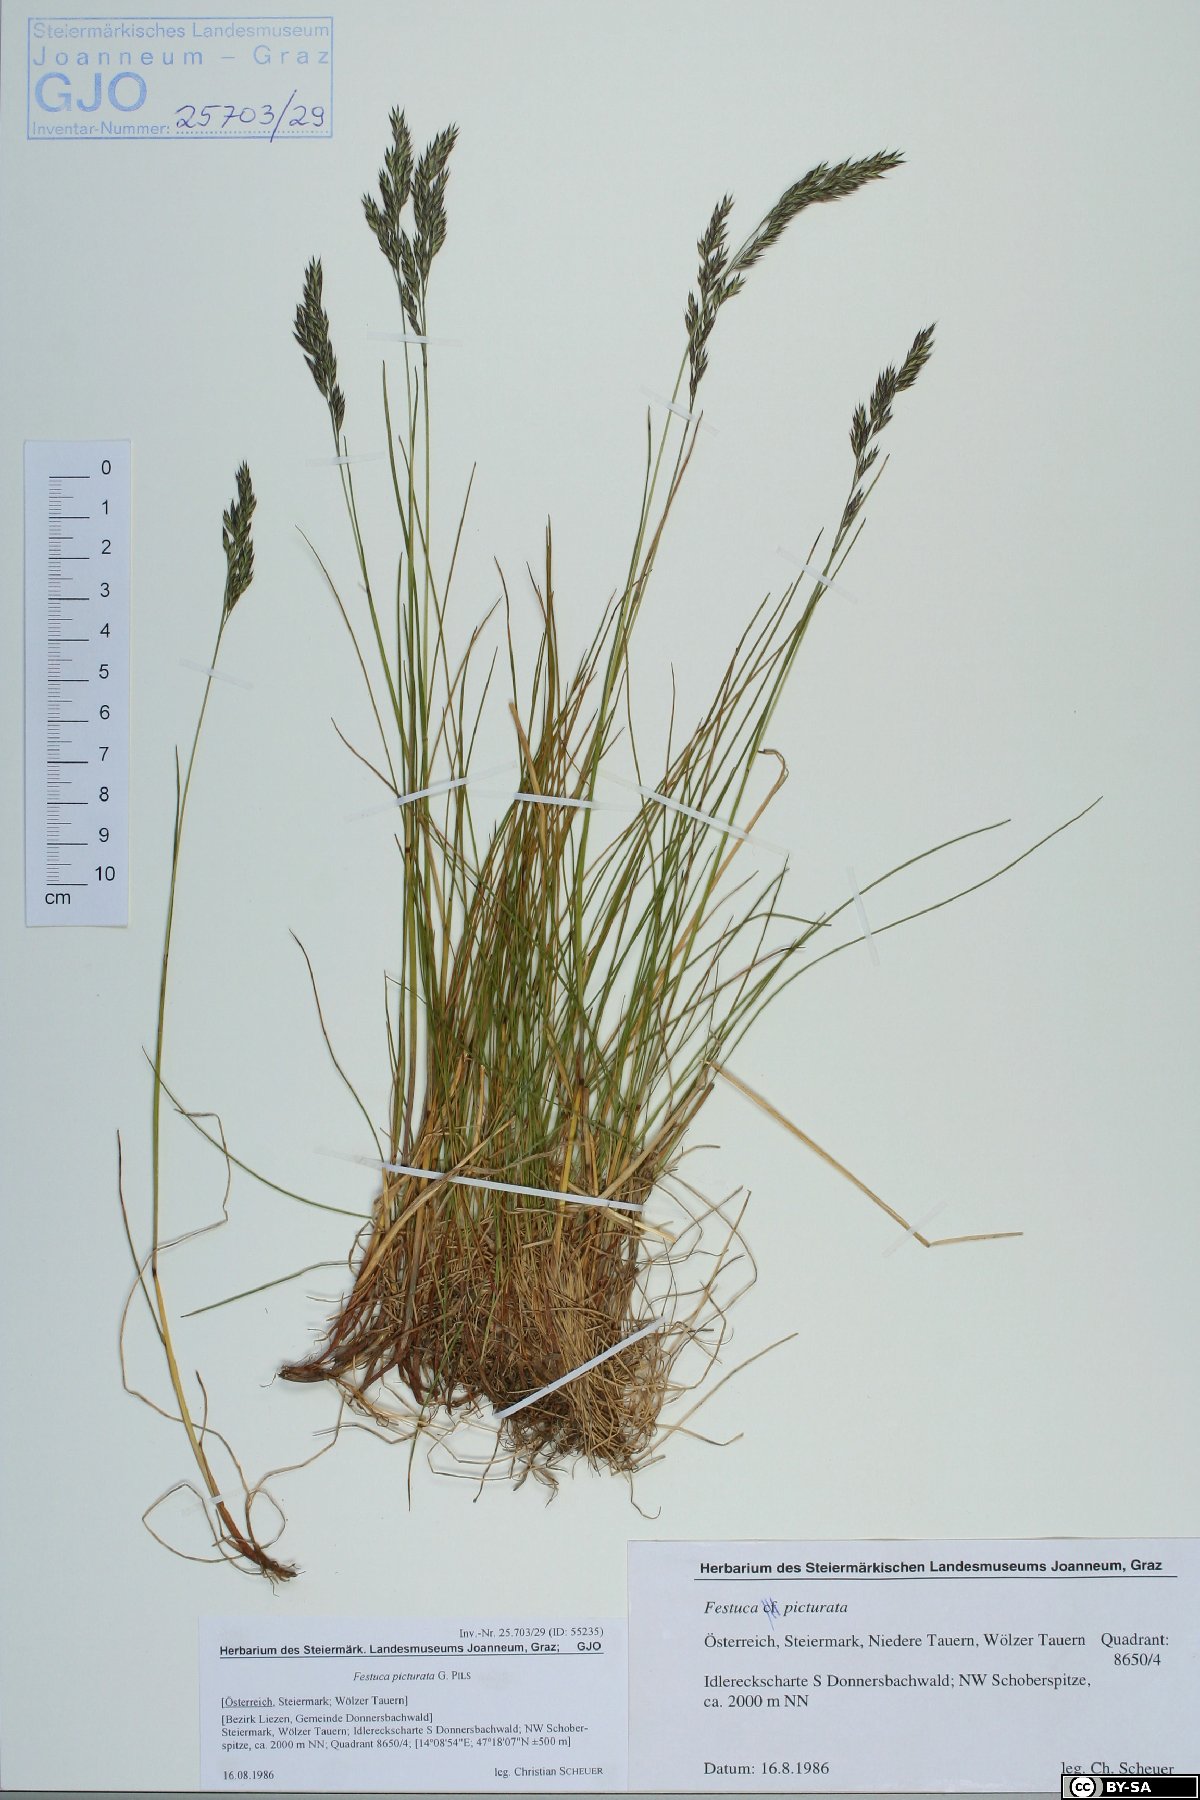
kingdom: Plantae
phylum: Tracheophyta
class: Liliopsida
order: Poales
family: Poaceae
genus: Festuca
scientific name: Festuca picturata
